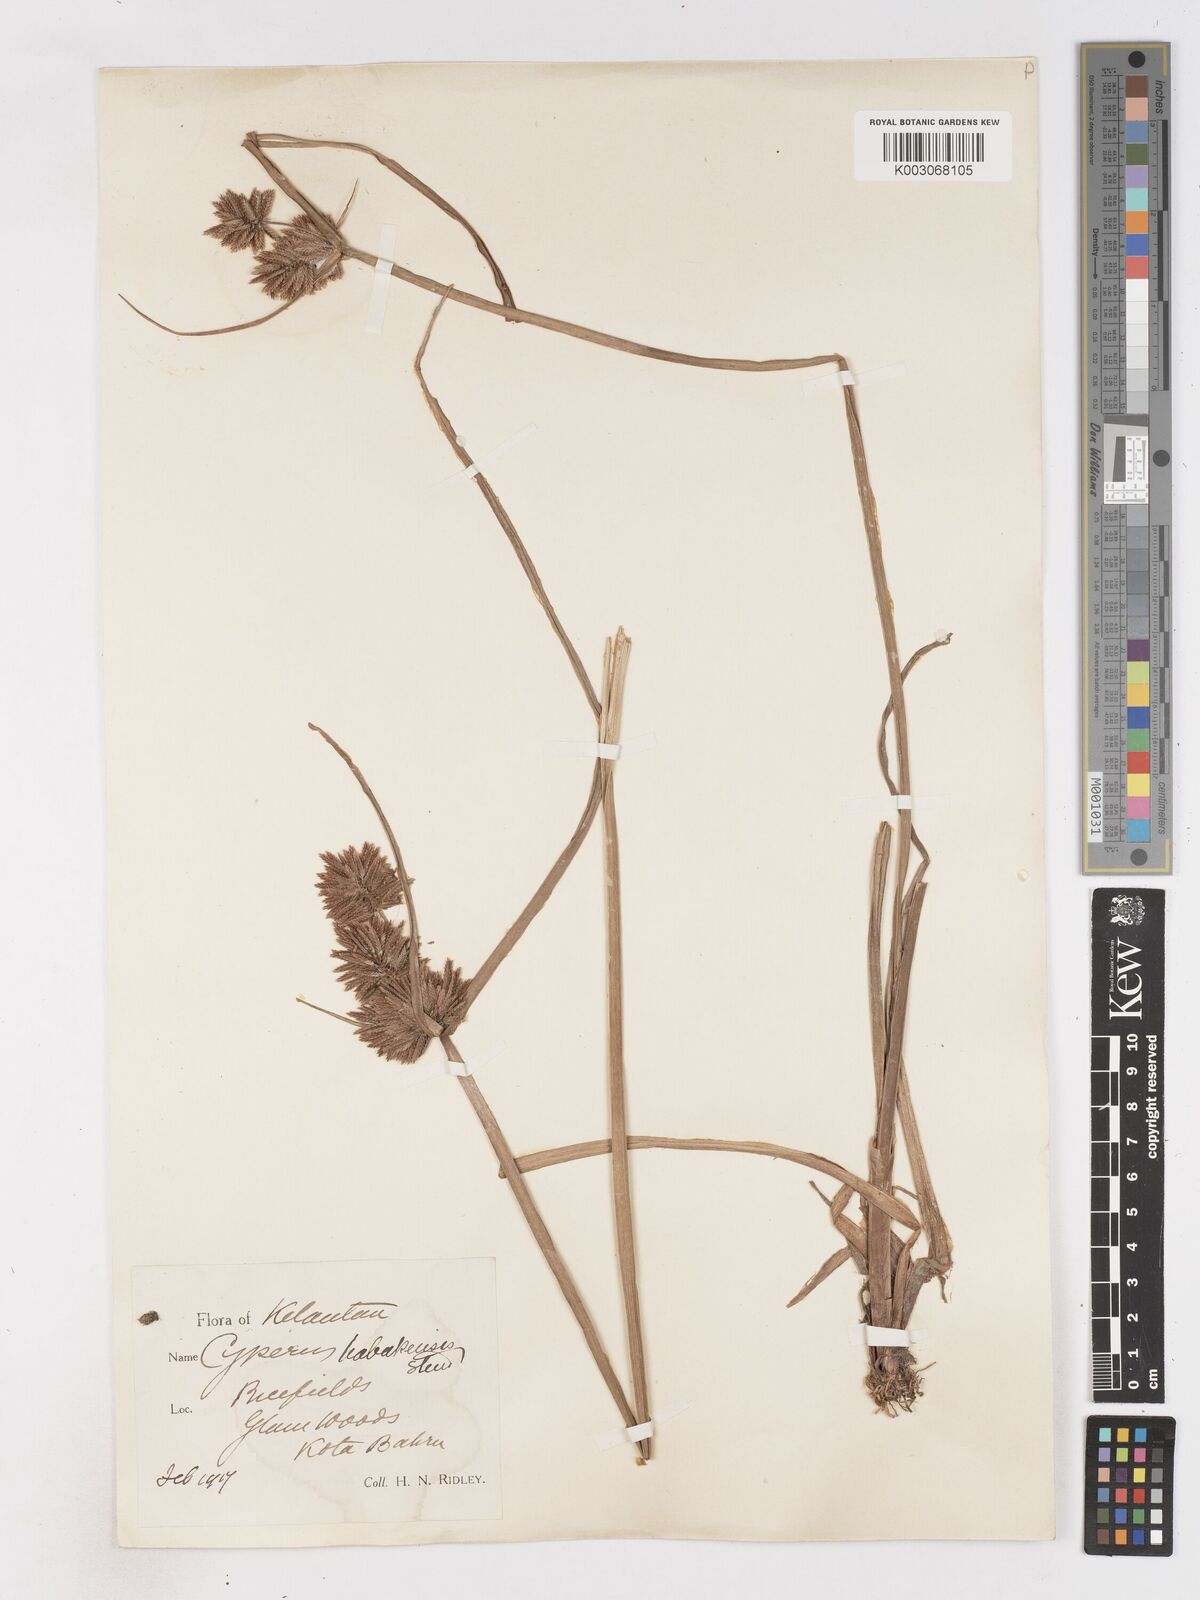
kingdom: Plantae
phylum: Tracheophyta
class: Liliopsida
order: Poales
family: Cyperaceae
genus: Cyperus
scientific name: Cyperus babakan
